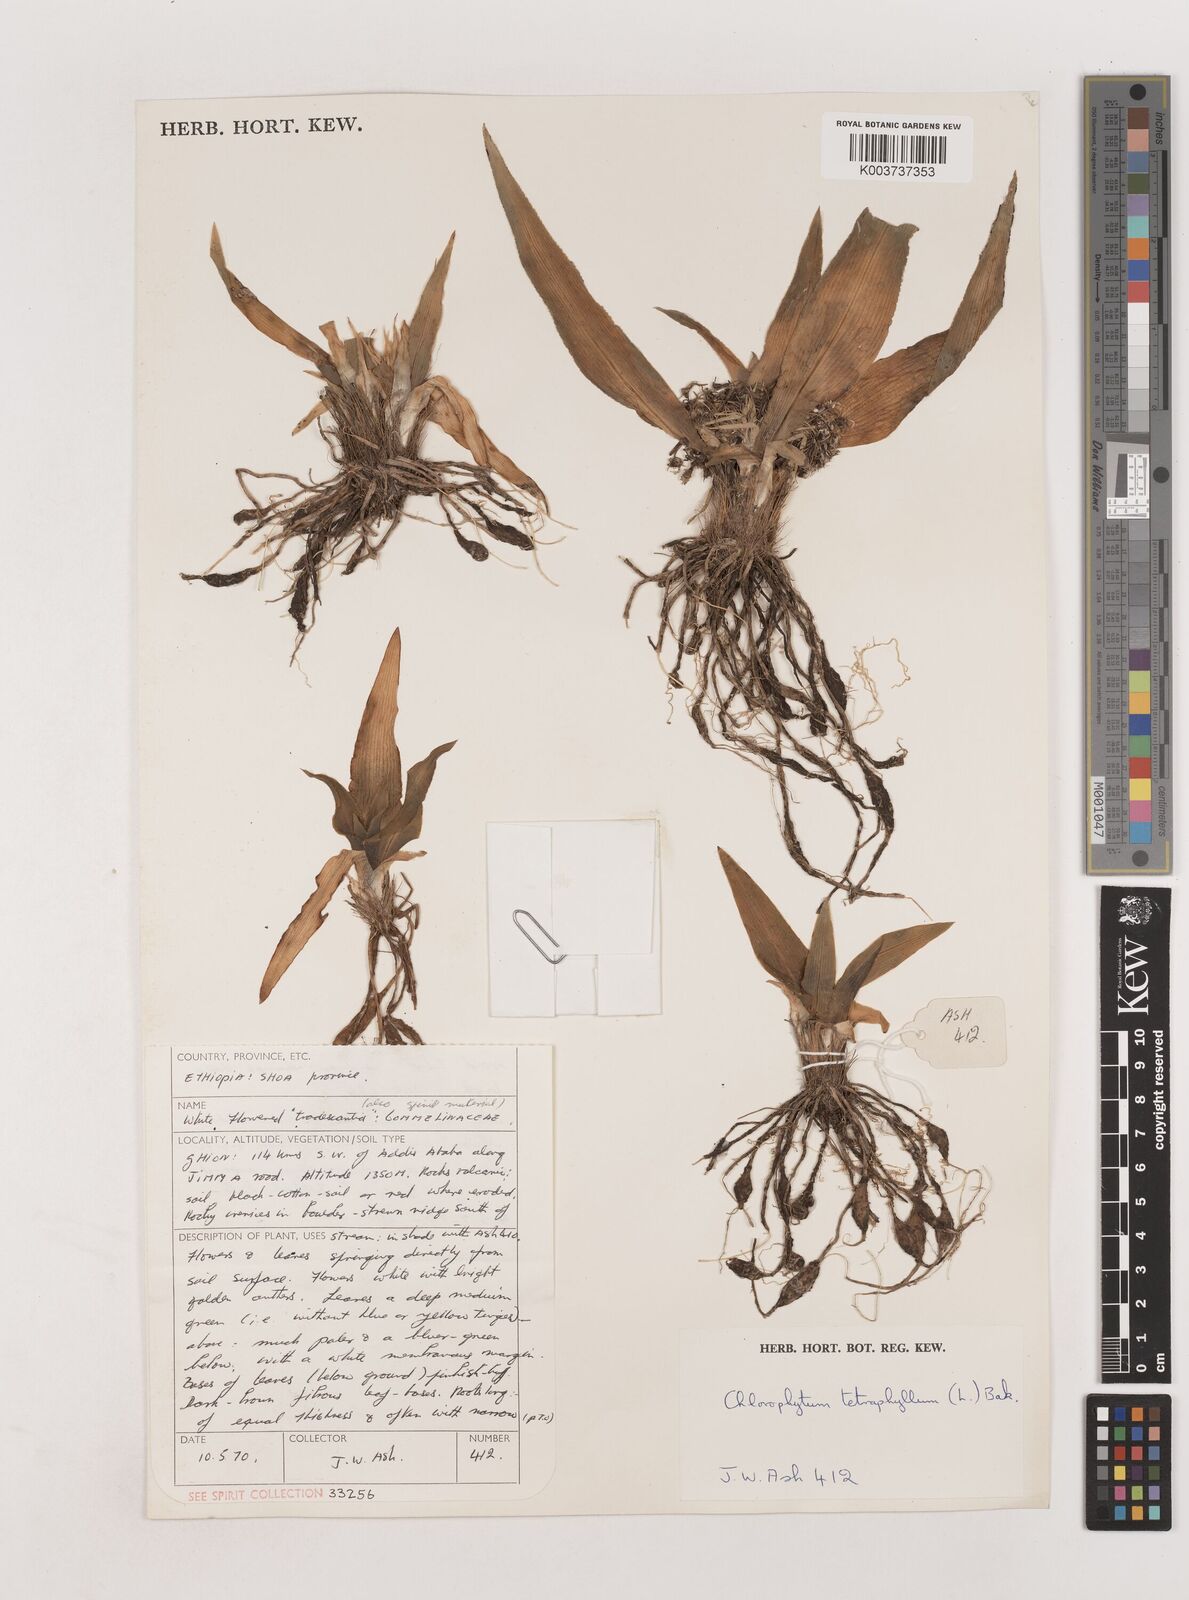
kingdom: Plantae
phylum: Tracheophyta
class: Liliopsida
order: Asparagales
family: Asparagaceae
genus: Chlorophytum
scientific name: Chlorophytum tetraphyllum
